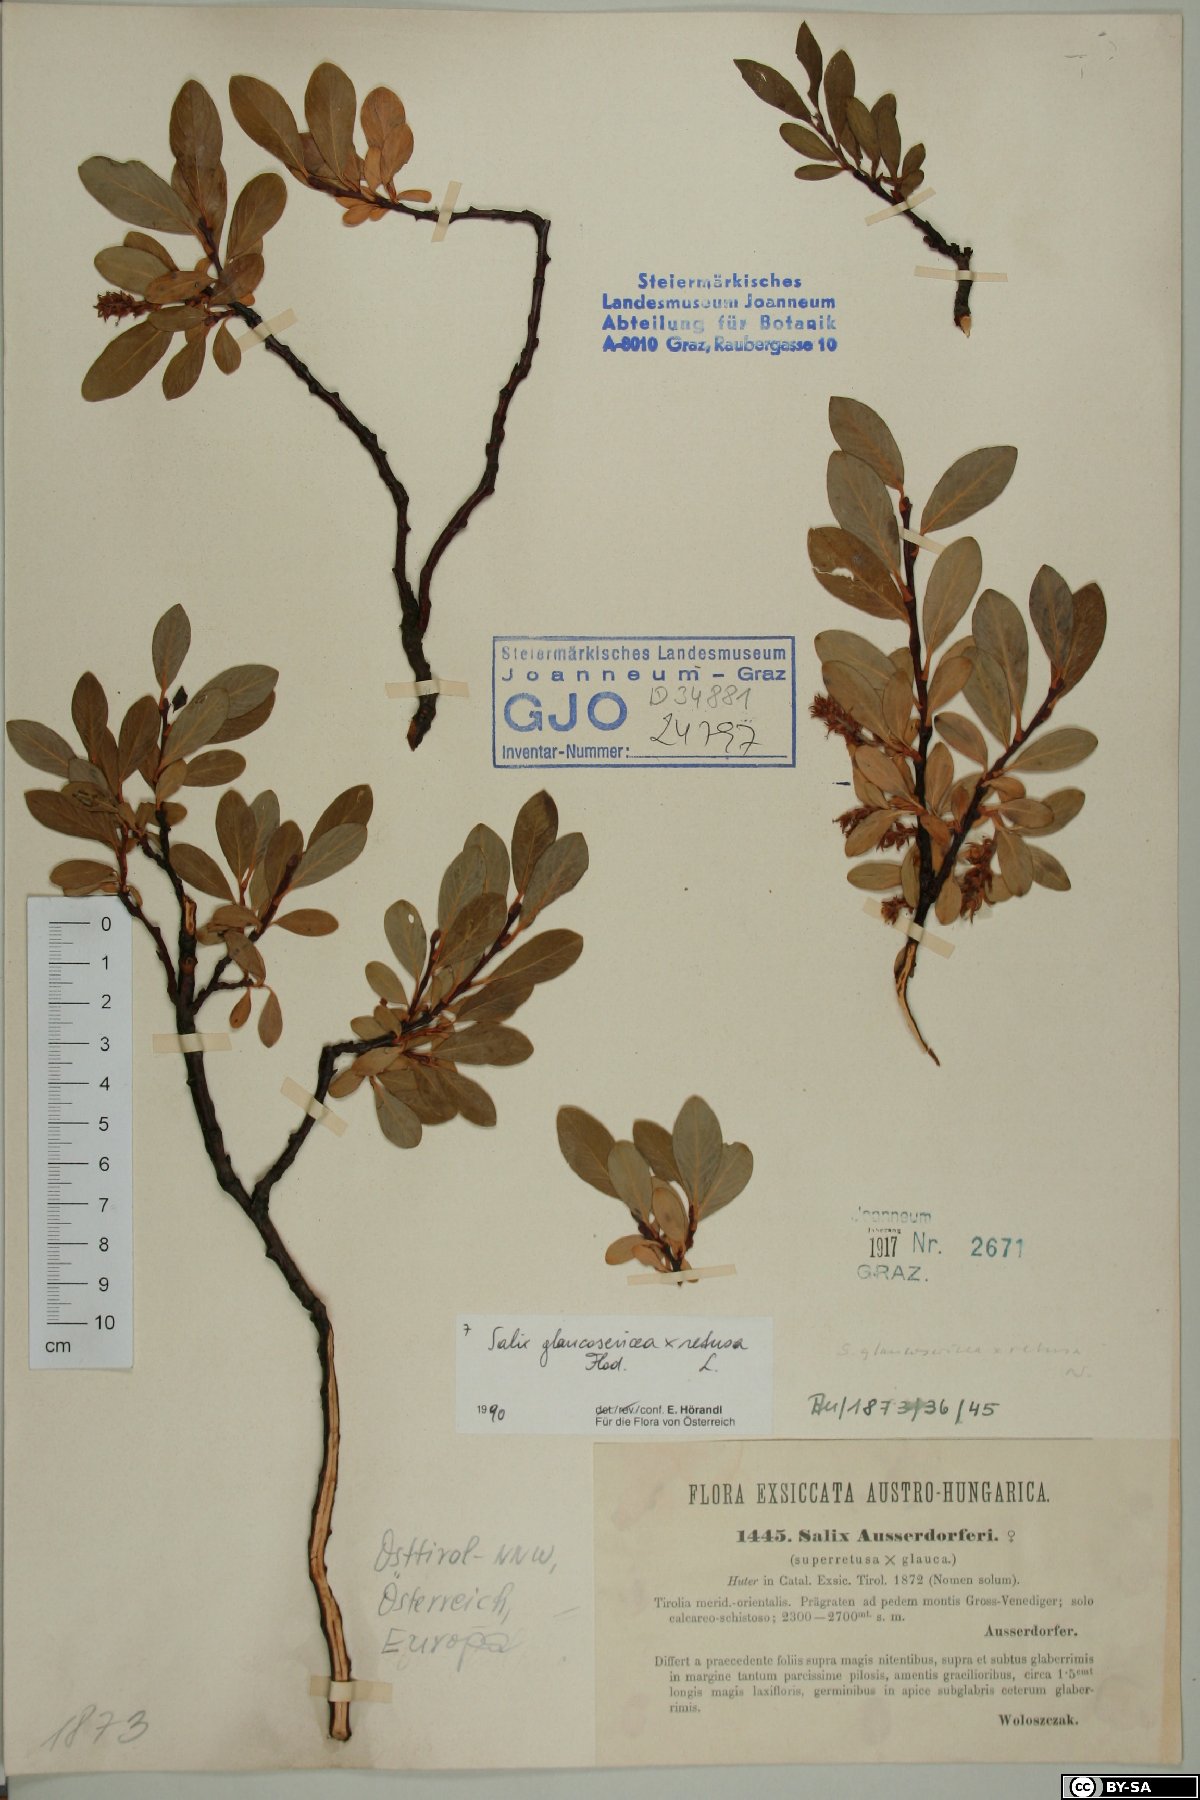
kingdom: Plantae
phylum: Tracheophyta
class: Magnoliopsida
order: Malpighiales
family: Salicaceae
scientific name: Salicaceae
